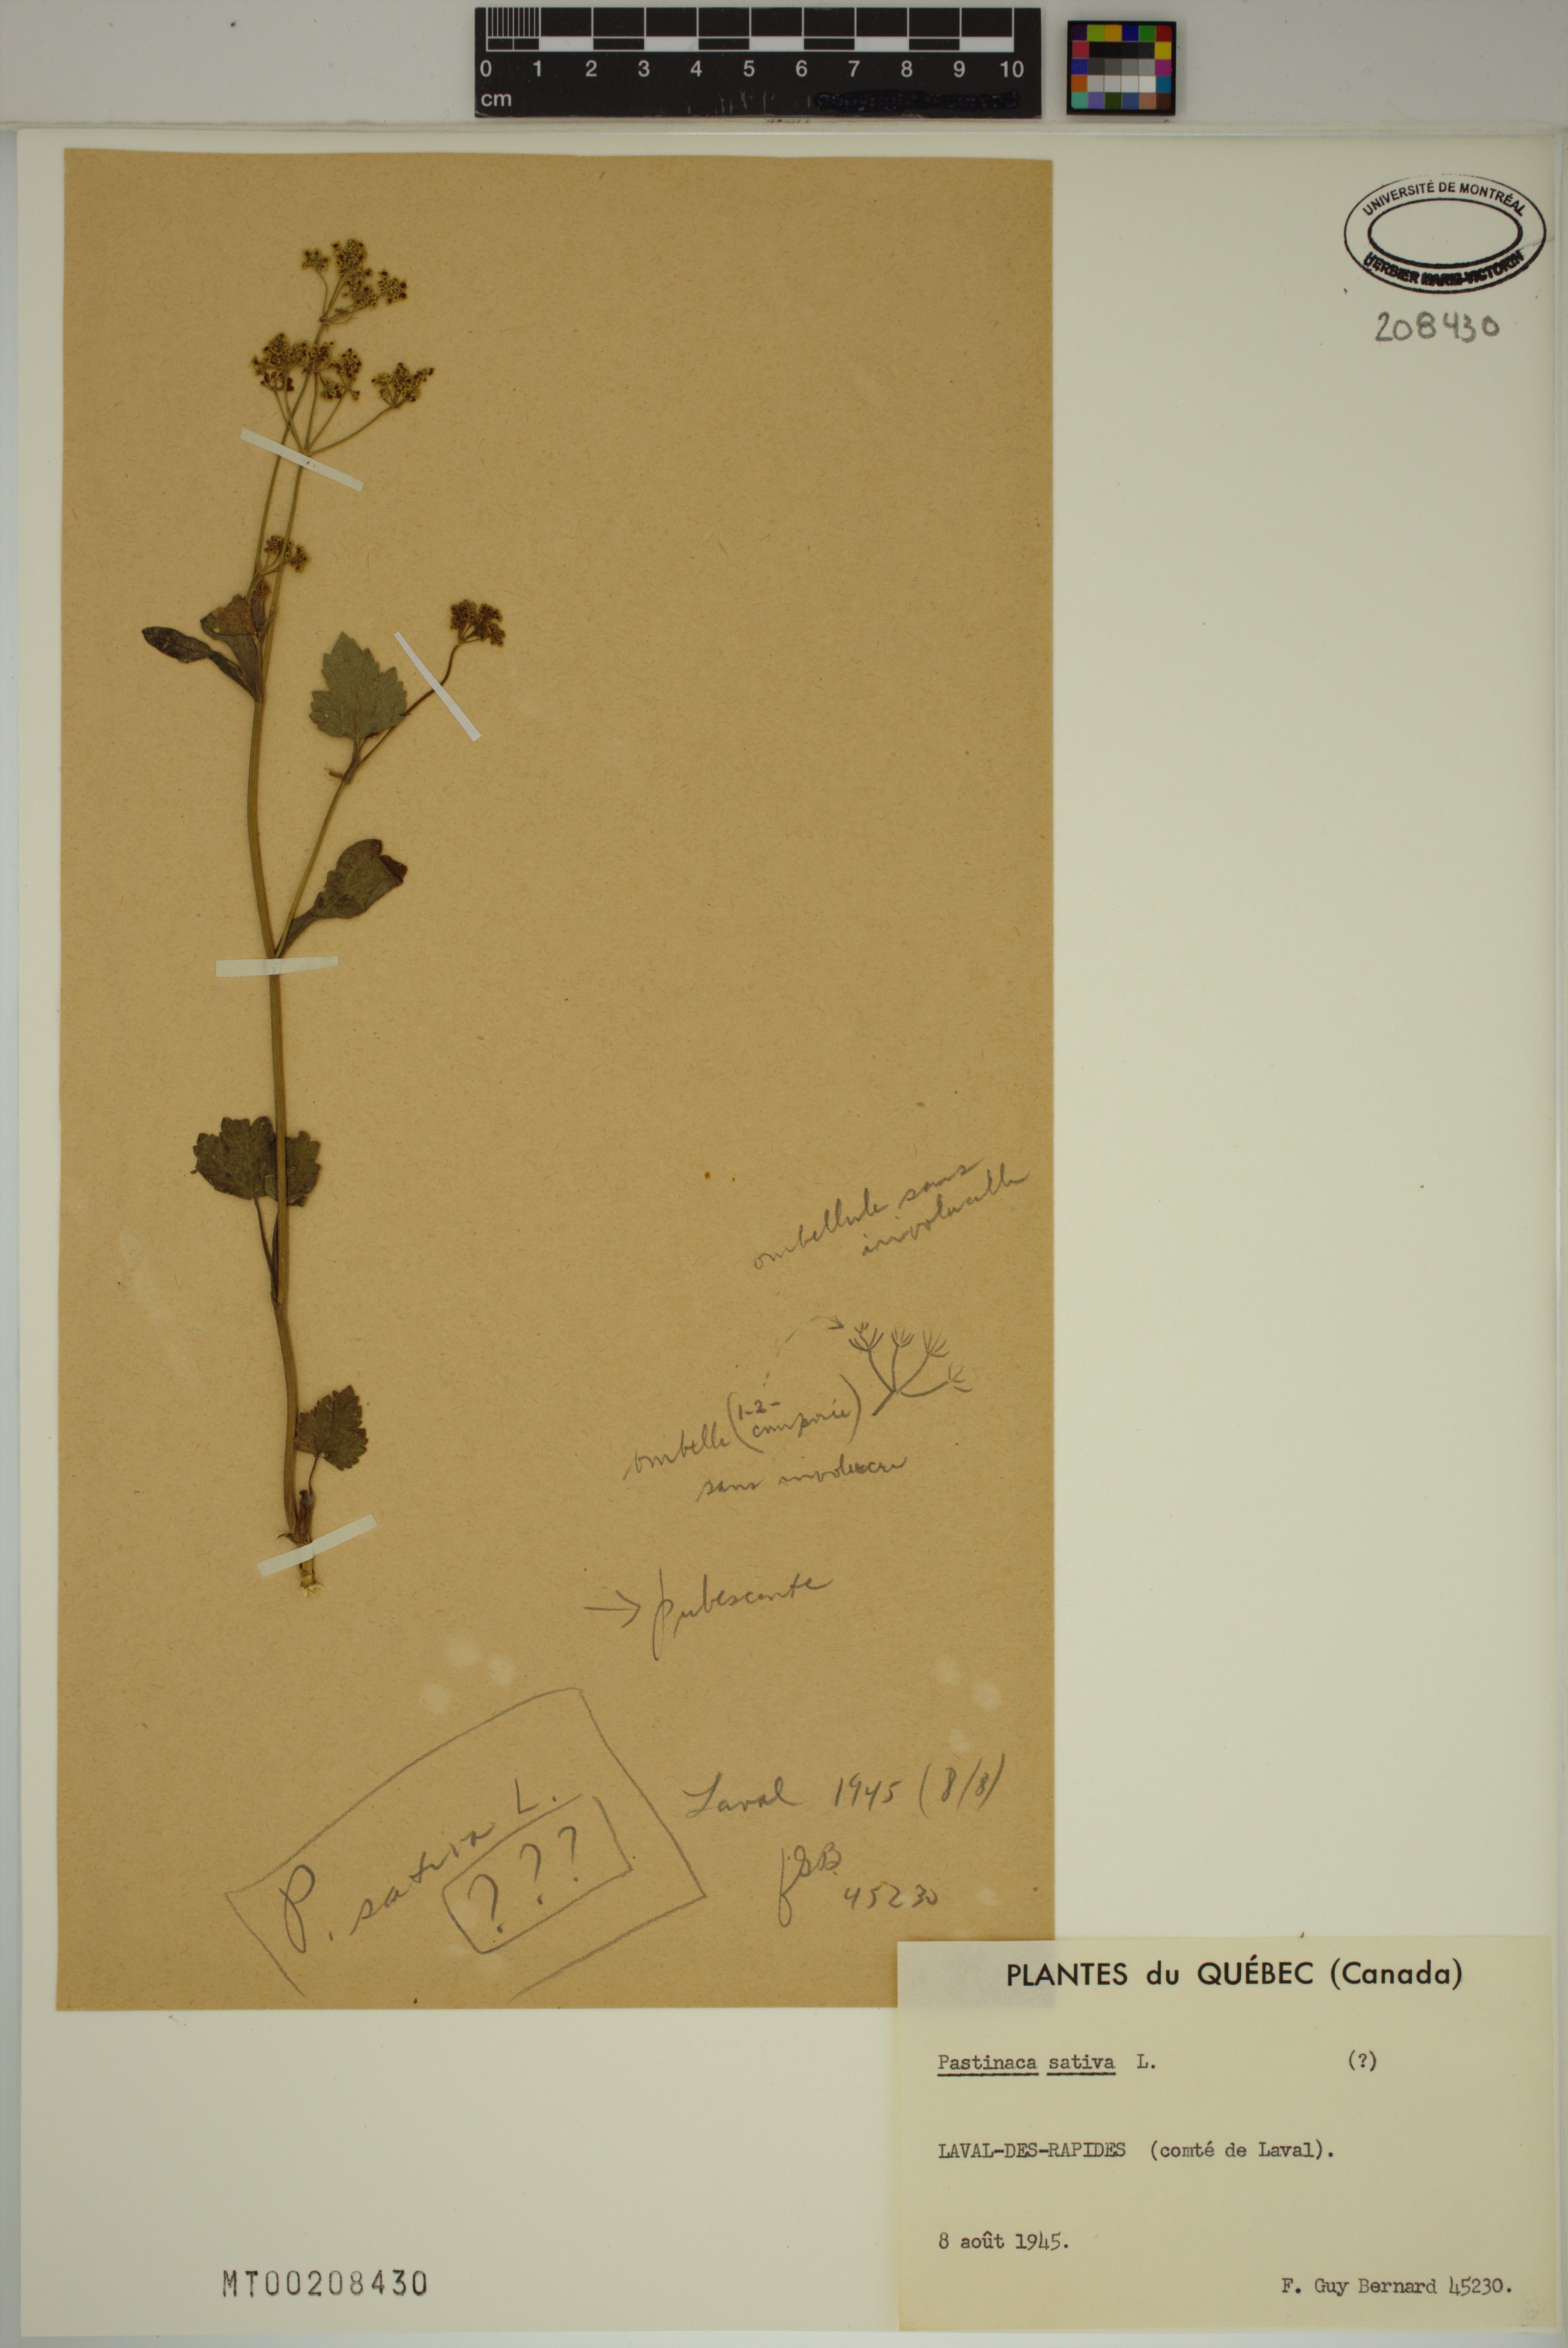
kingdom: Plantae
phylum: Tracheophyta
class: Magnoliopsida
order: Apiales
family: Apiaceae
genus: Pastinaca
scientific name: Pastinaca sativa
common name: Wild parsnip
